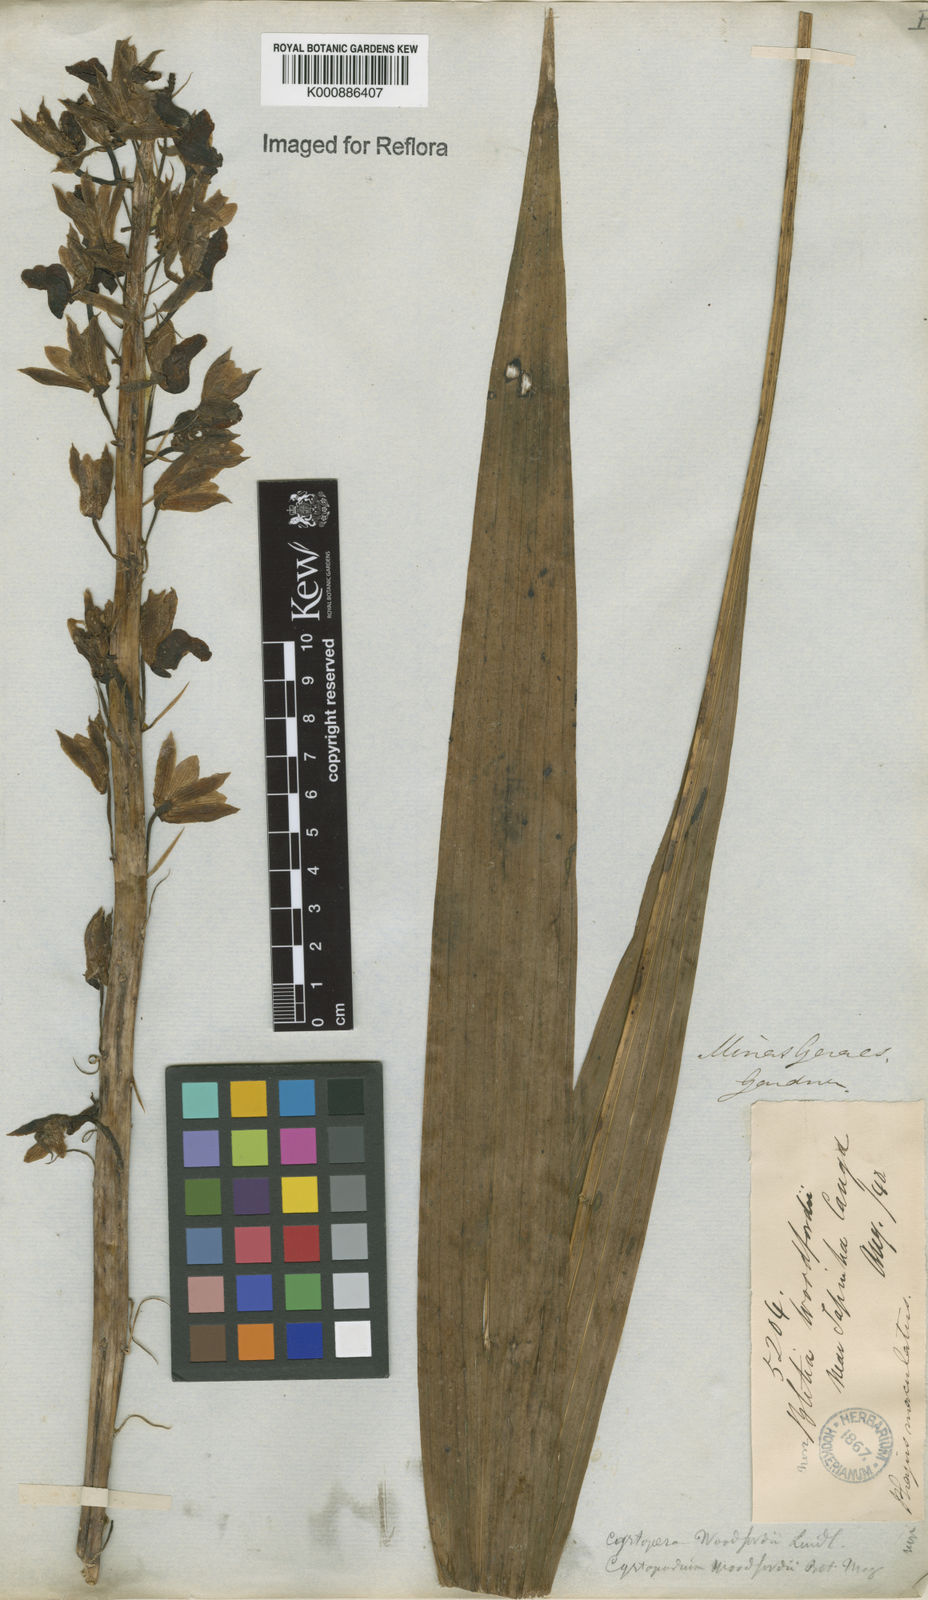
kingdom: Plantae
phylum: Tracheophyta
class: Liliopsida
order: Asparagales
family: Orchidaceae
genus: Eulophia
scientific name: Eulophia alta
